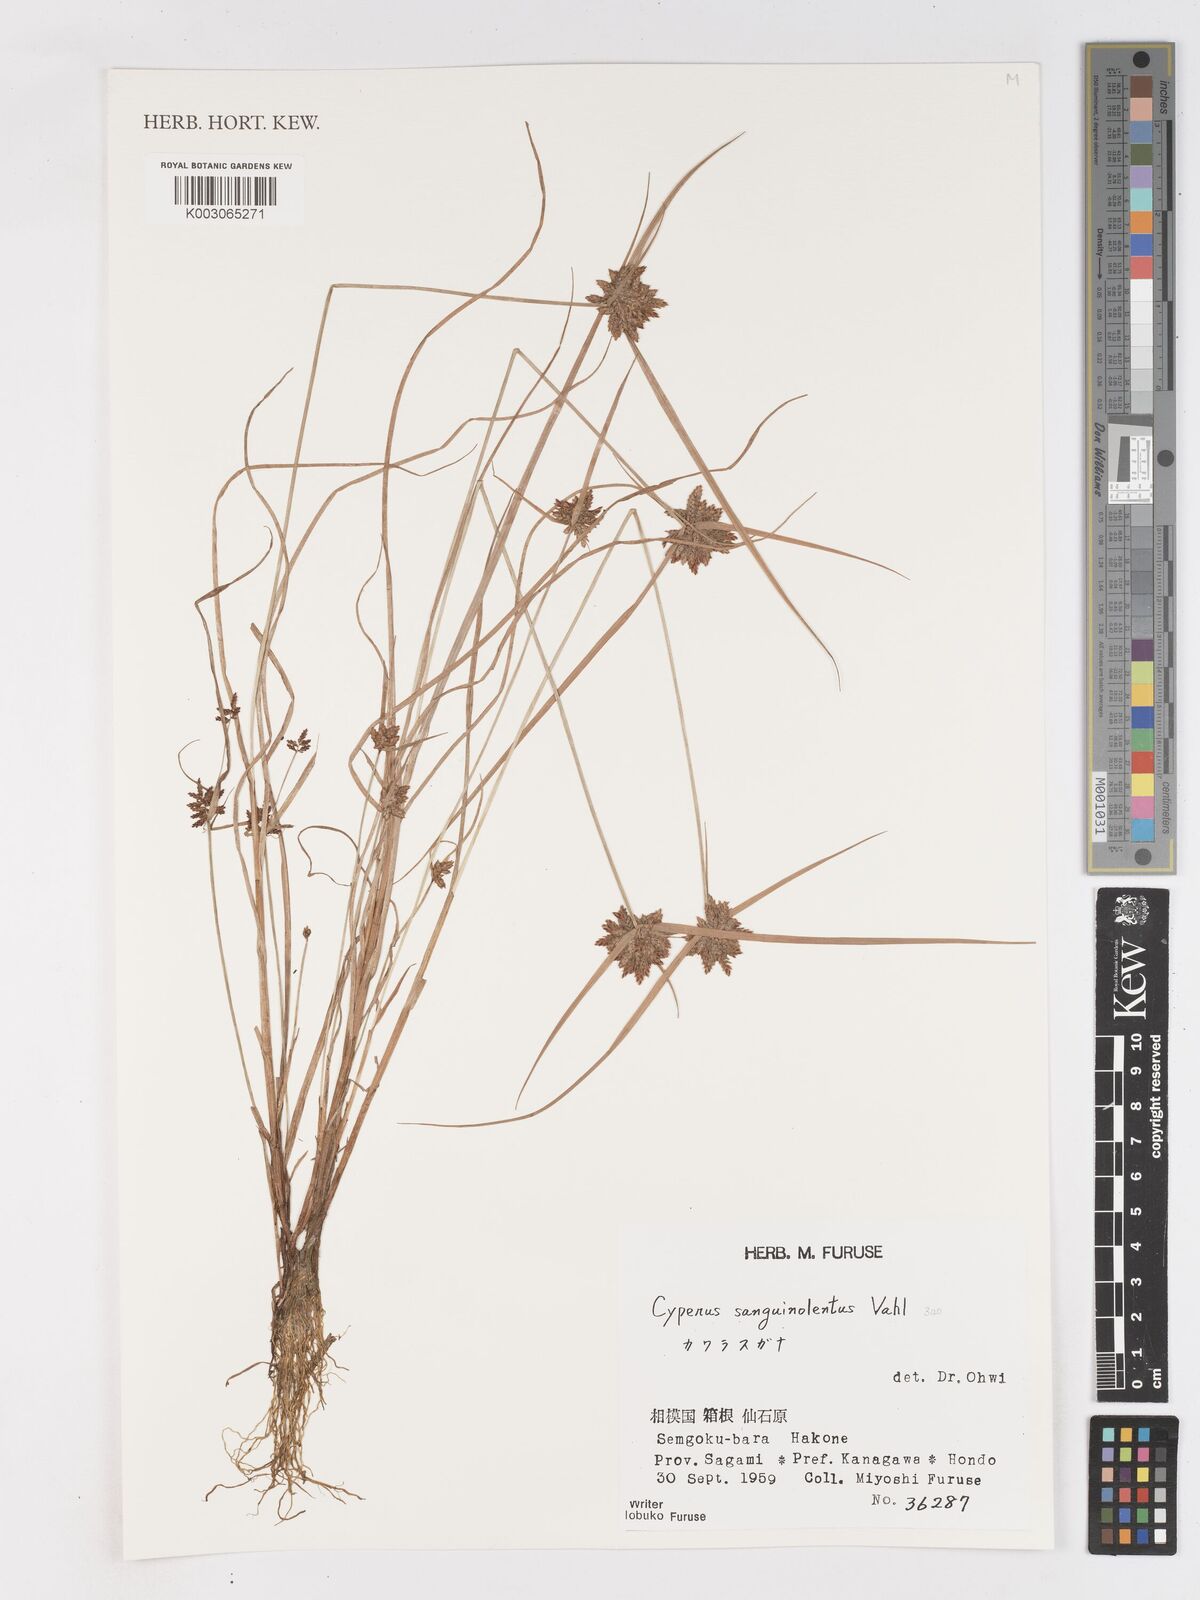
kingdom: Plantae
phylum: Tracheophyta
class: Liliopsida
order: Poales
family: Cyperaceae
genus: Cyperus
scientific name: Cyperus sanguinolentus
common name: Purpleglume flatsedge
